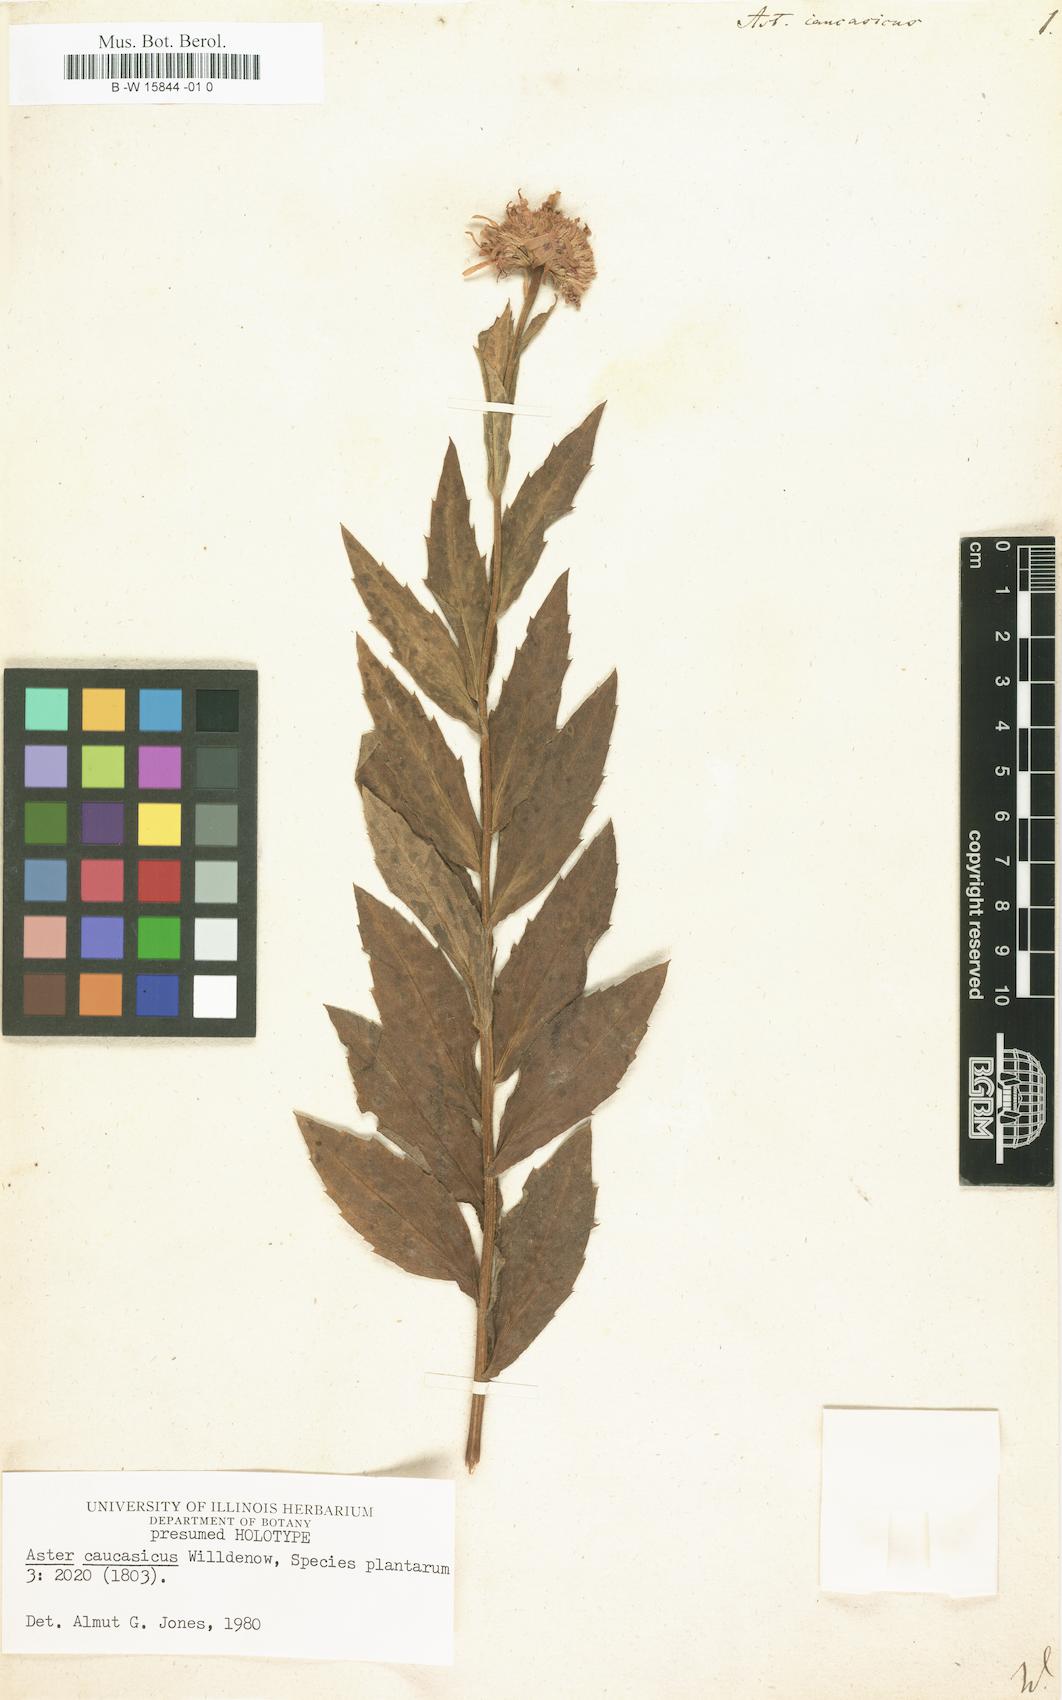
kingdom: Plantae
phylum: Tracheophyta
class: Magnoliopsida
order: Asterales
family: Asteraceae
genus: Kemulariella
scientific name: Kemulariella caucasica
